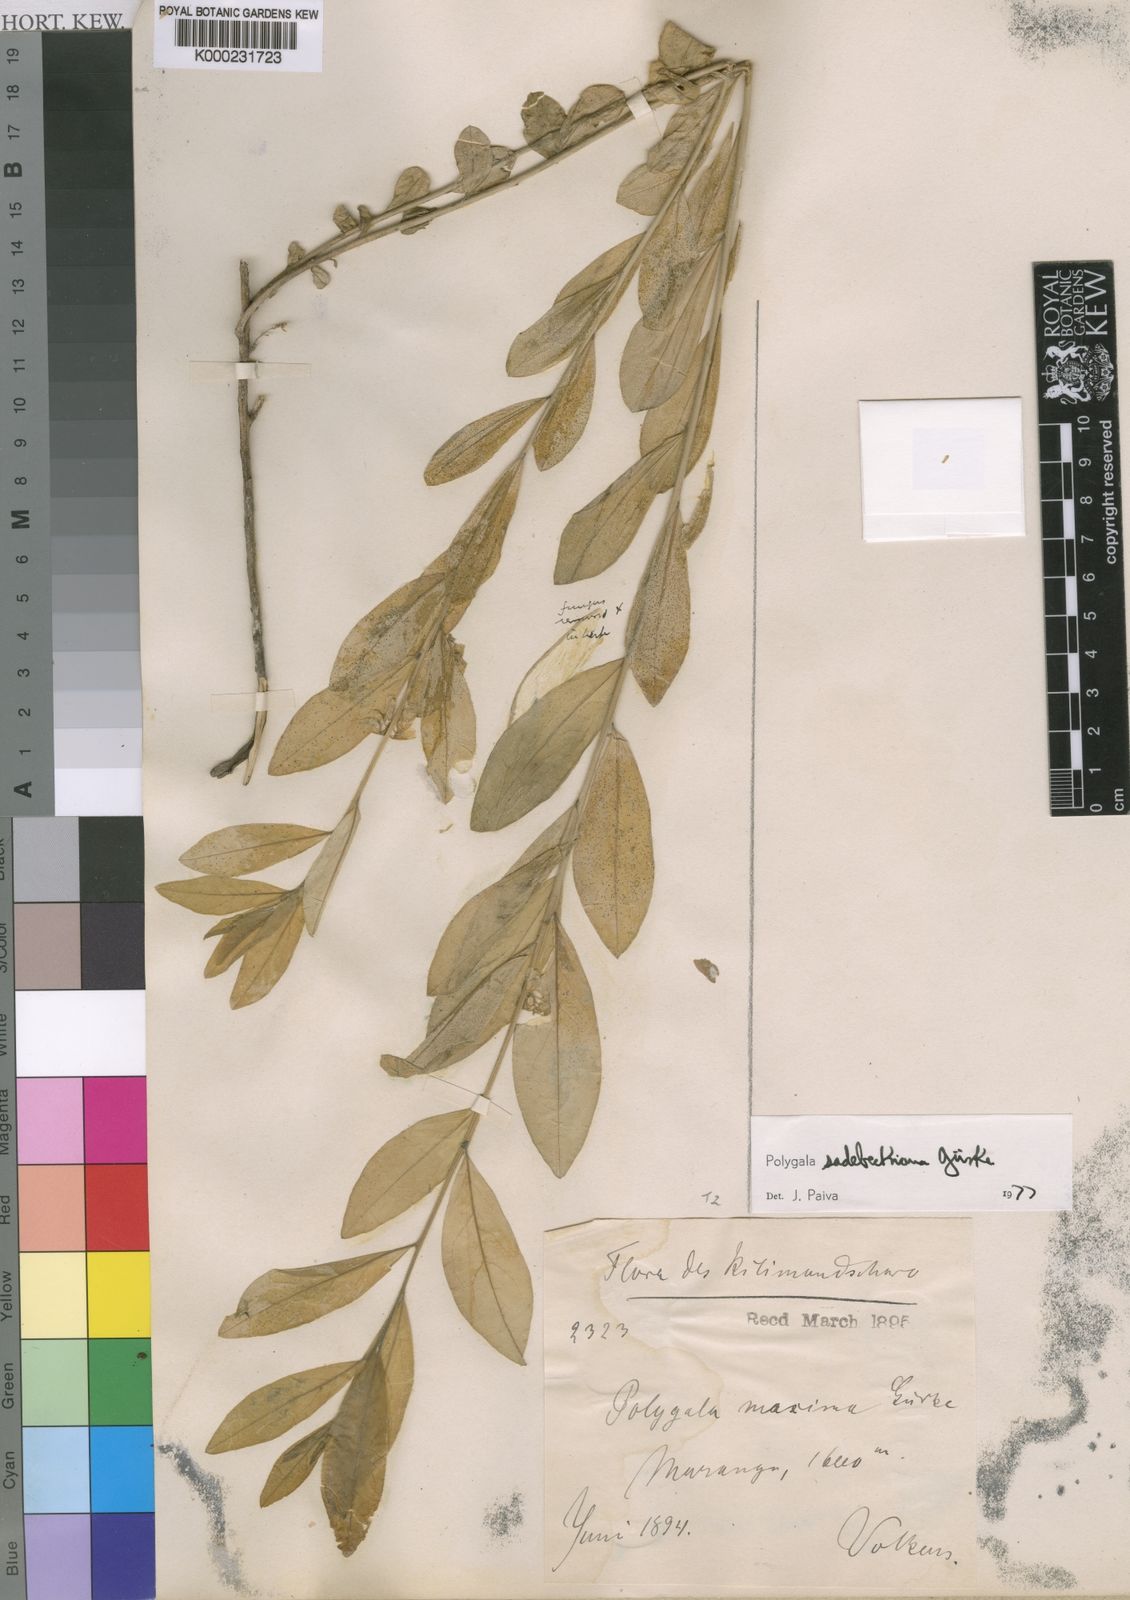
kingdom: Plantae
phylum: Tracheophyta
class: Magnoliopsida
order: Fabales
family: Polygalaceae
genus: Polygala
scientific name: Polygala
